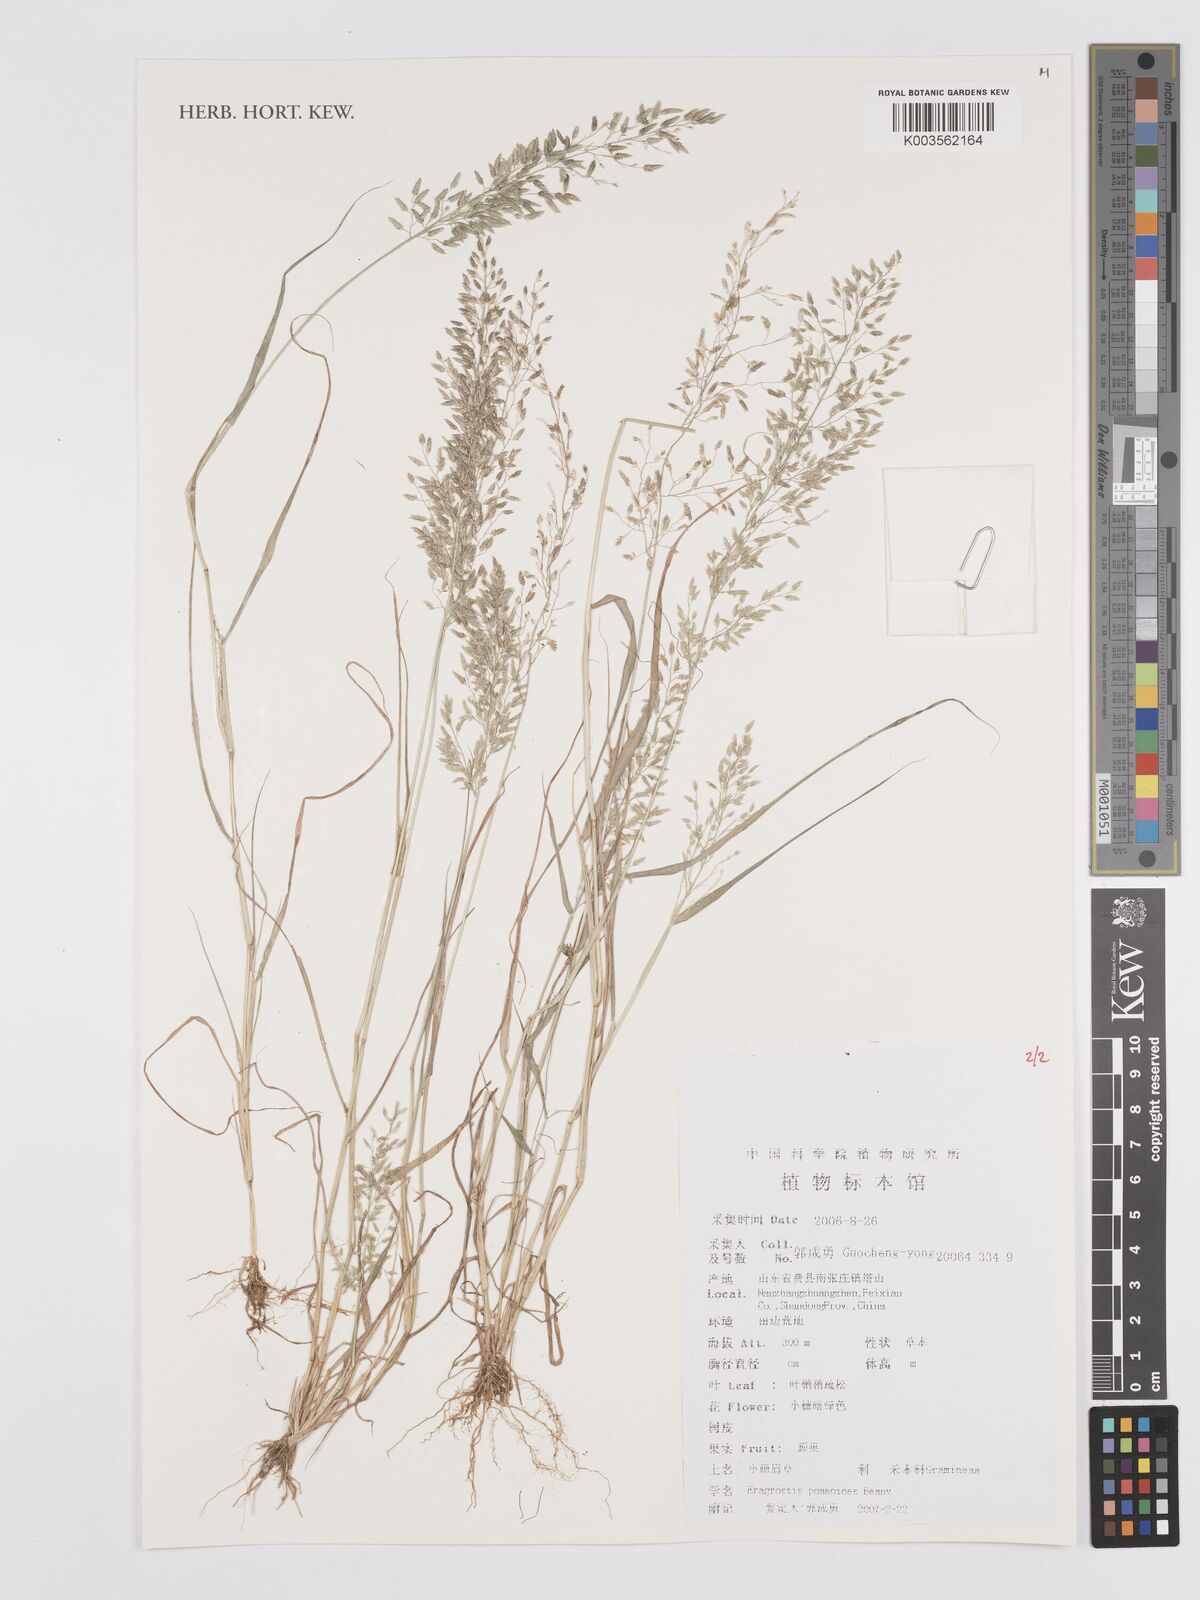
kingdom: Plantae
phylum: Tracheophyta
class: Liliopsida
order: Poales
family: Poaceae
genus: Eragrostis
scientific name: Eragrostis minor
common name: Small love-grass
